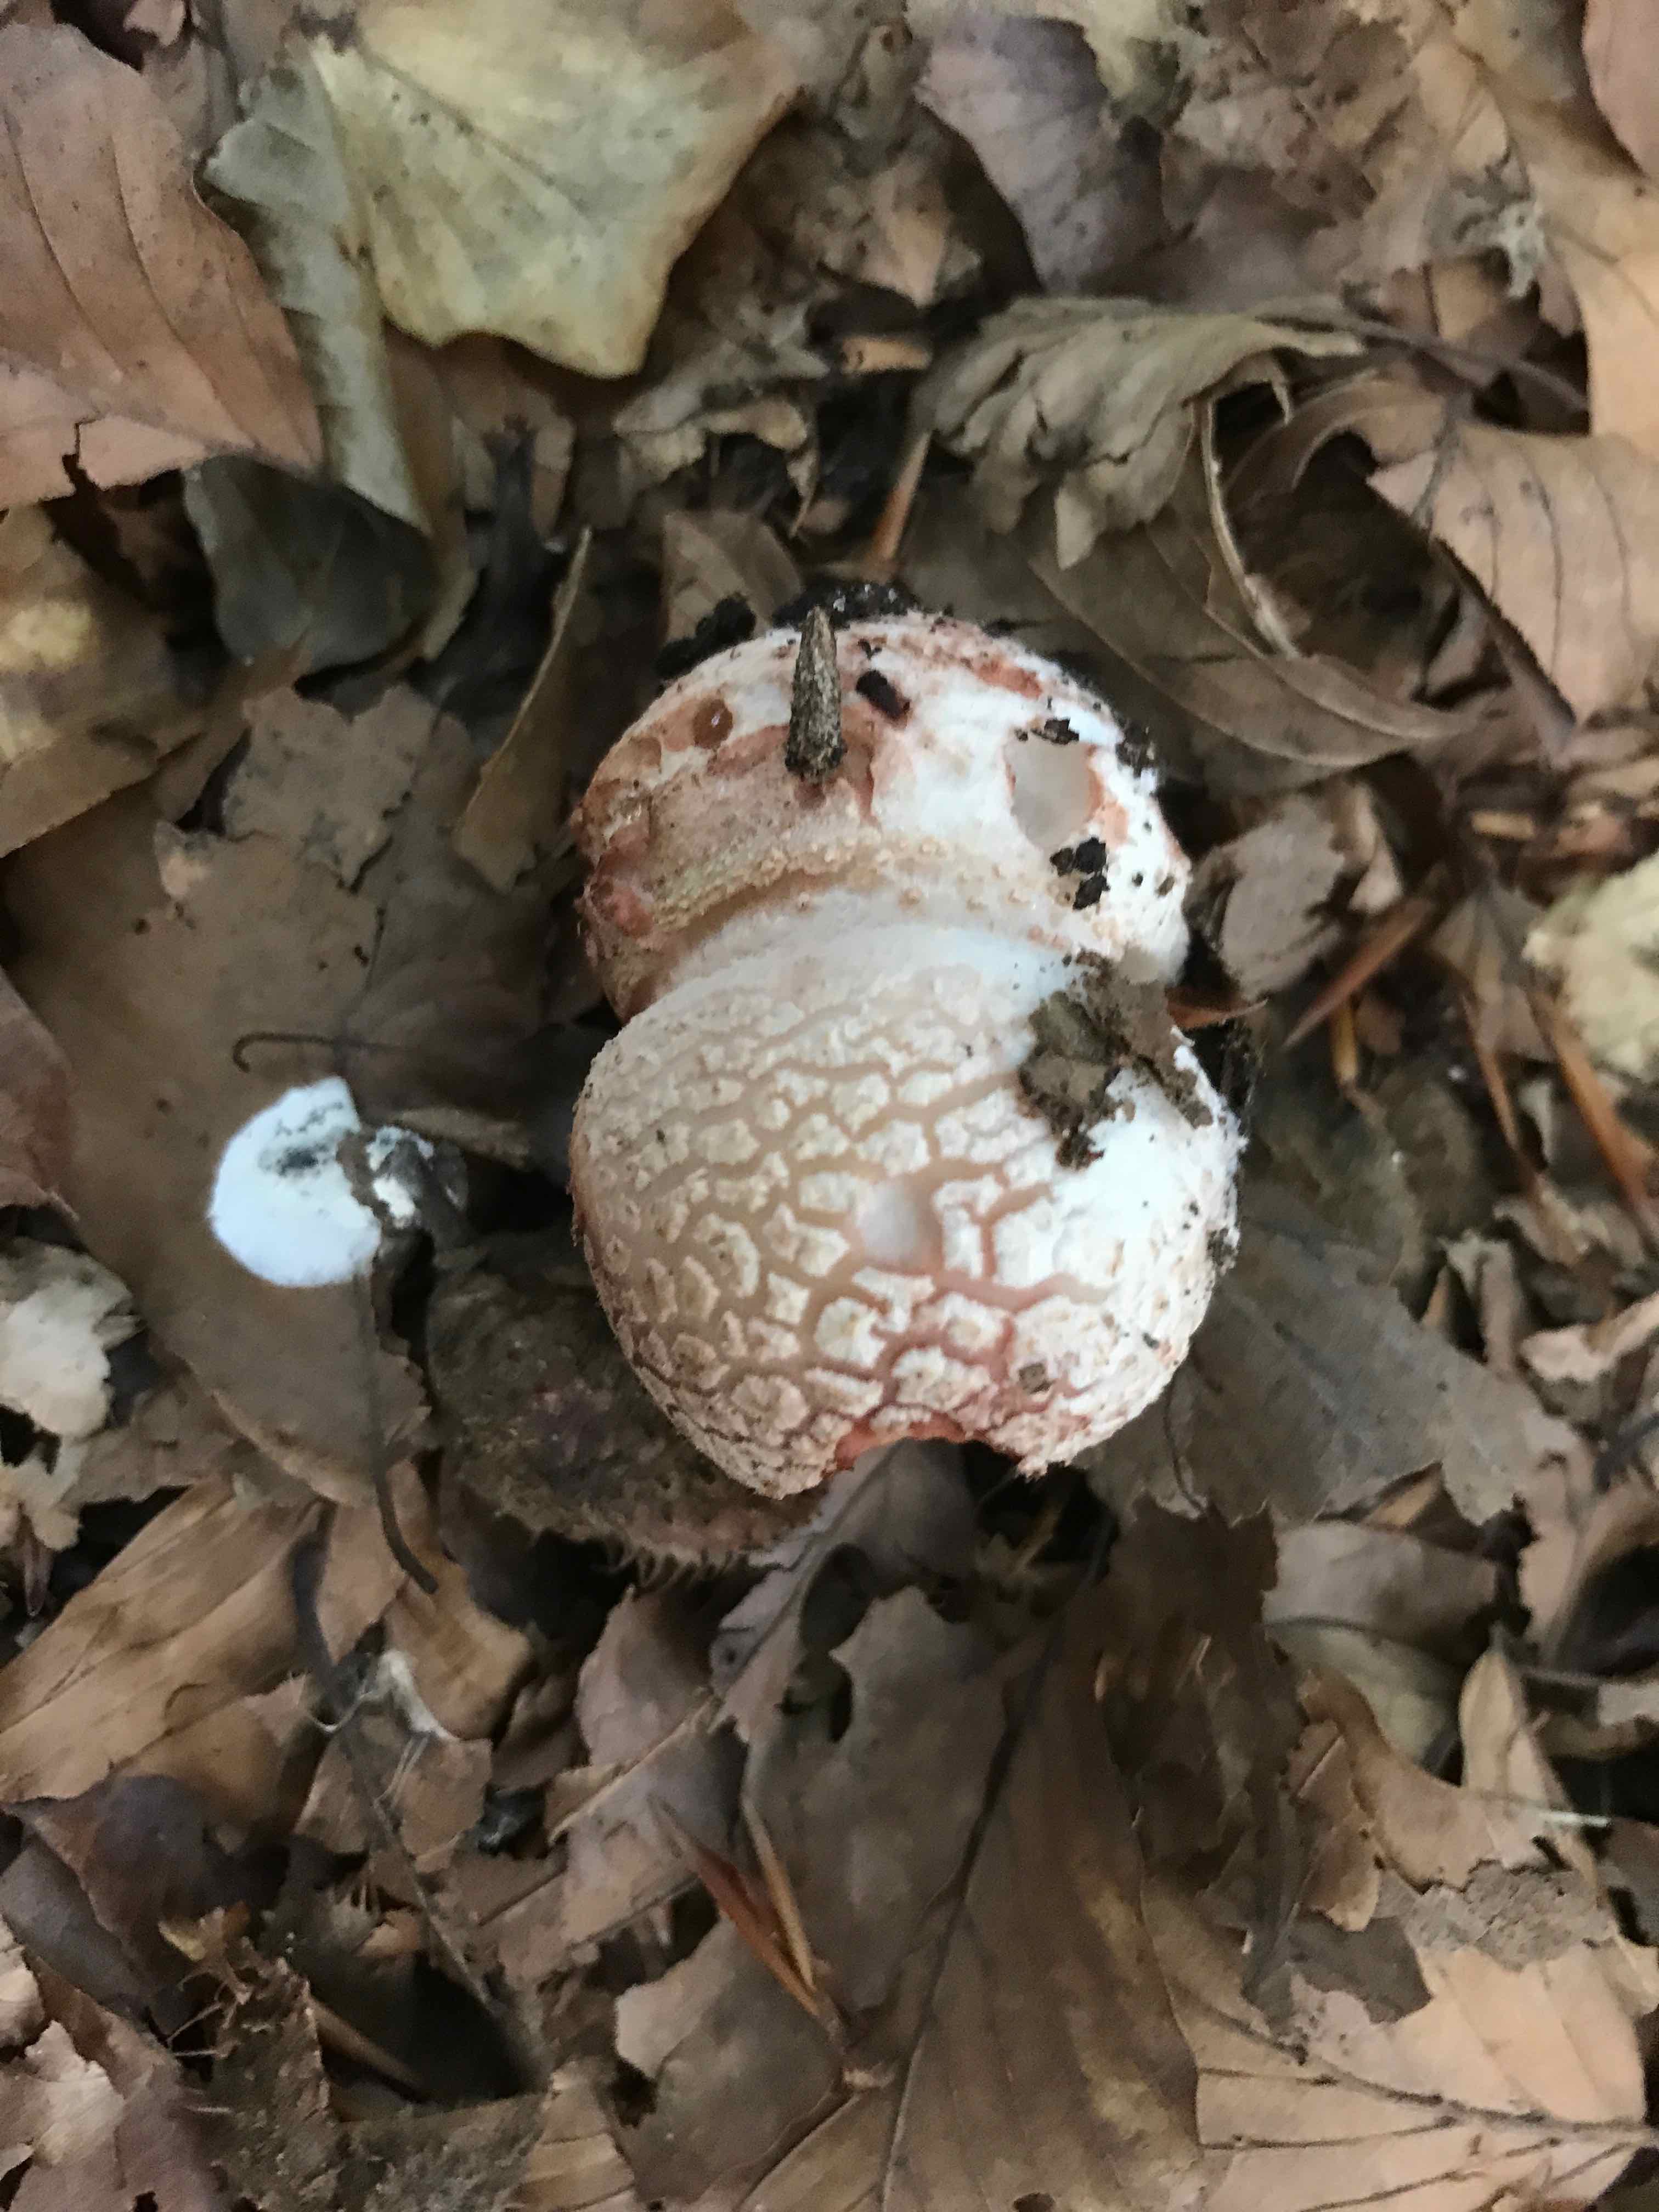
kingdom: Fungi
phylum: Basidiomycota
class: Agaricomycetes
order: Agaricales
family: Amanitaceae
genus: Amanita
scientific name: Amanita rubescens
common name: rødmende fluesvamp
